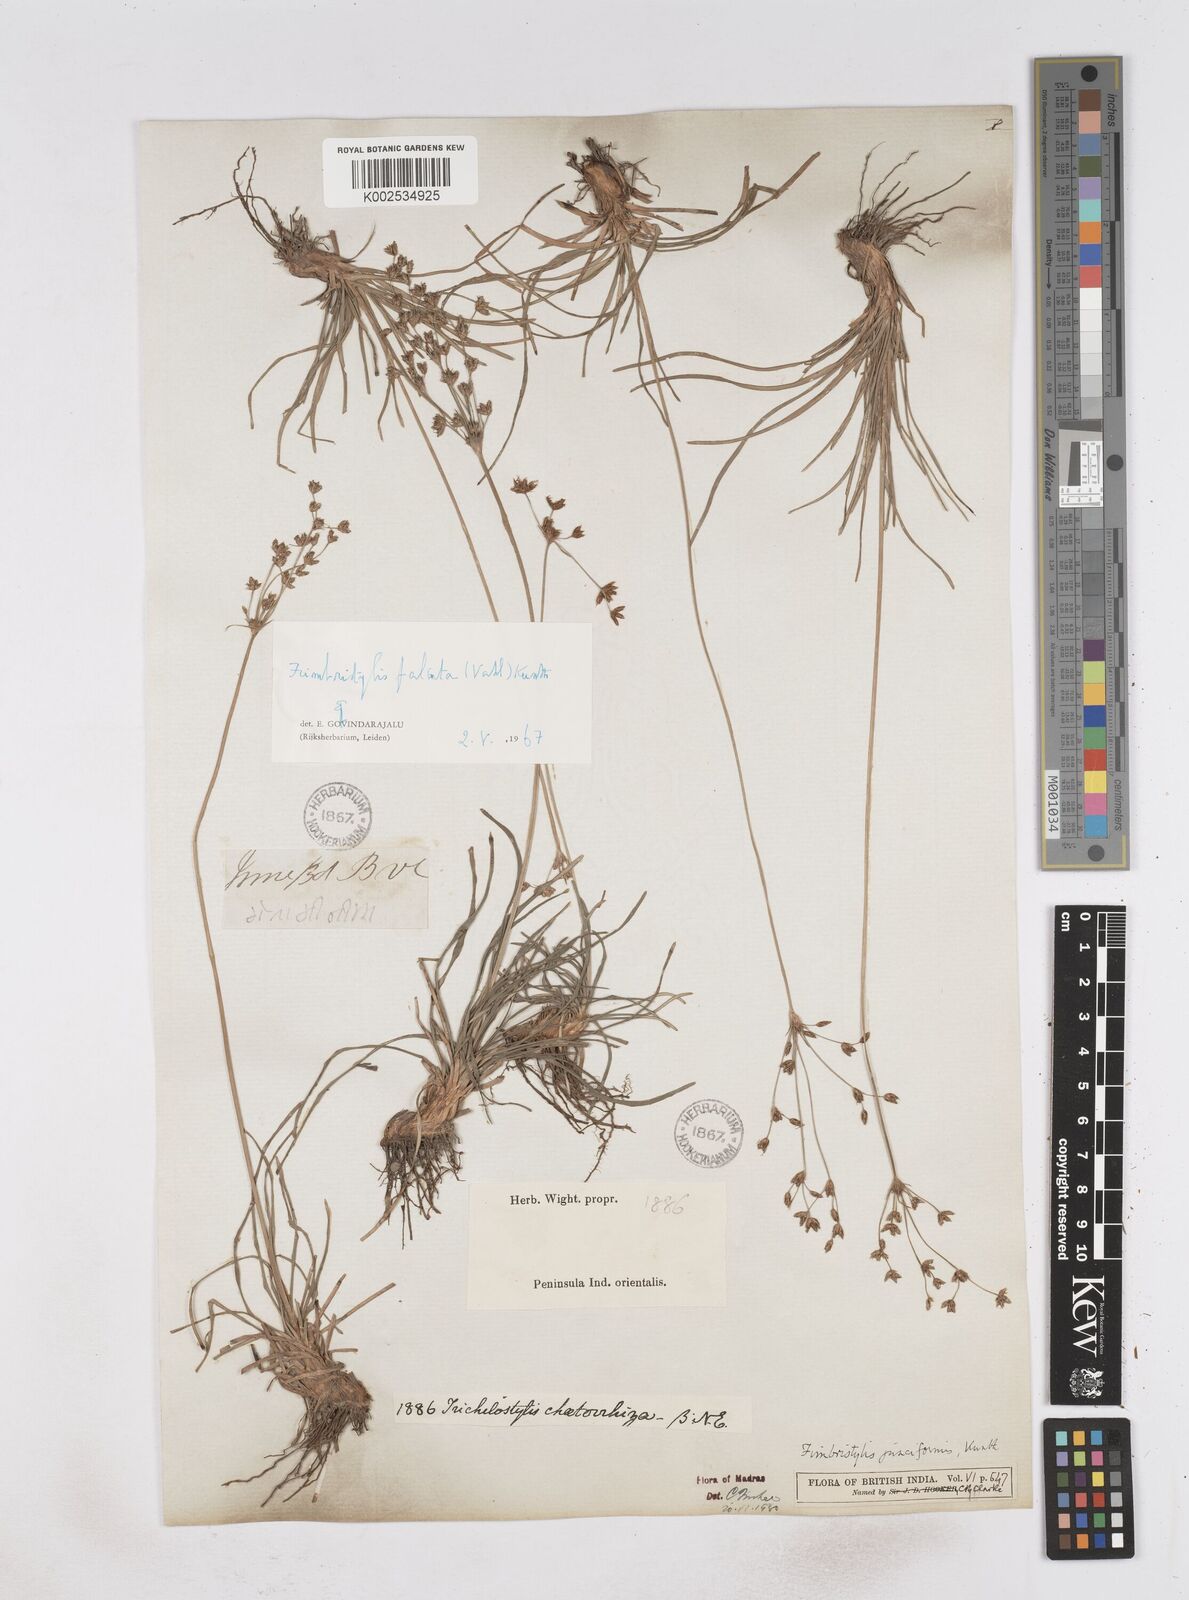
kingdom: Plantae
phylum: Tracheophyta
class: Liliopsida
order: Poales
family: Cyperaceae
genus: Fimbristylis
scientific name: Fimbristylis falcata
